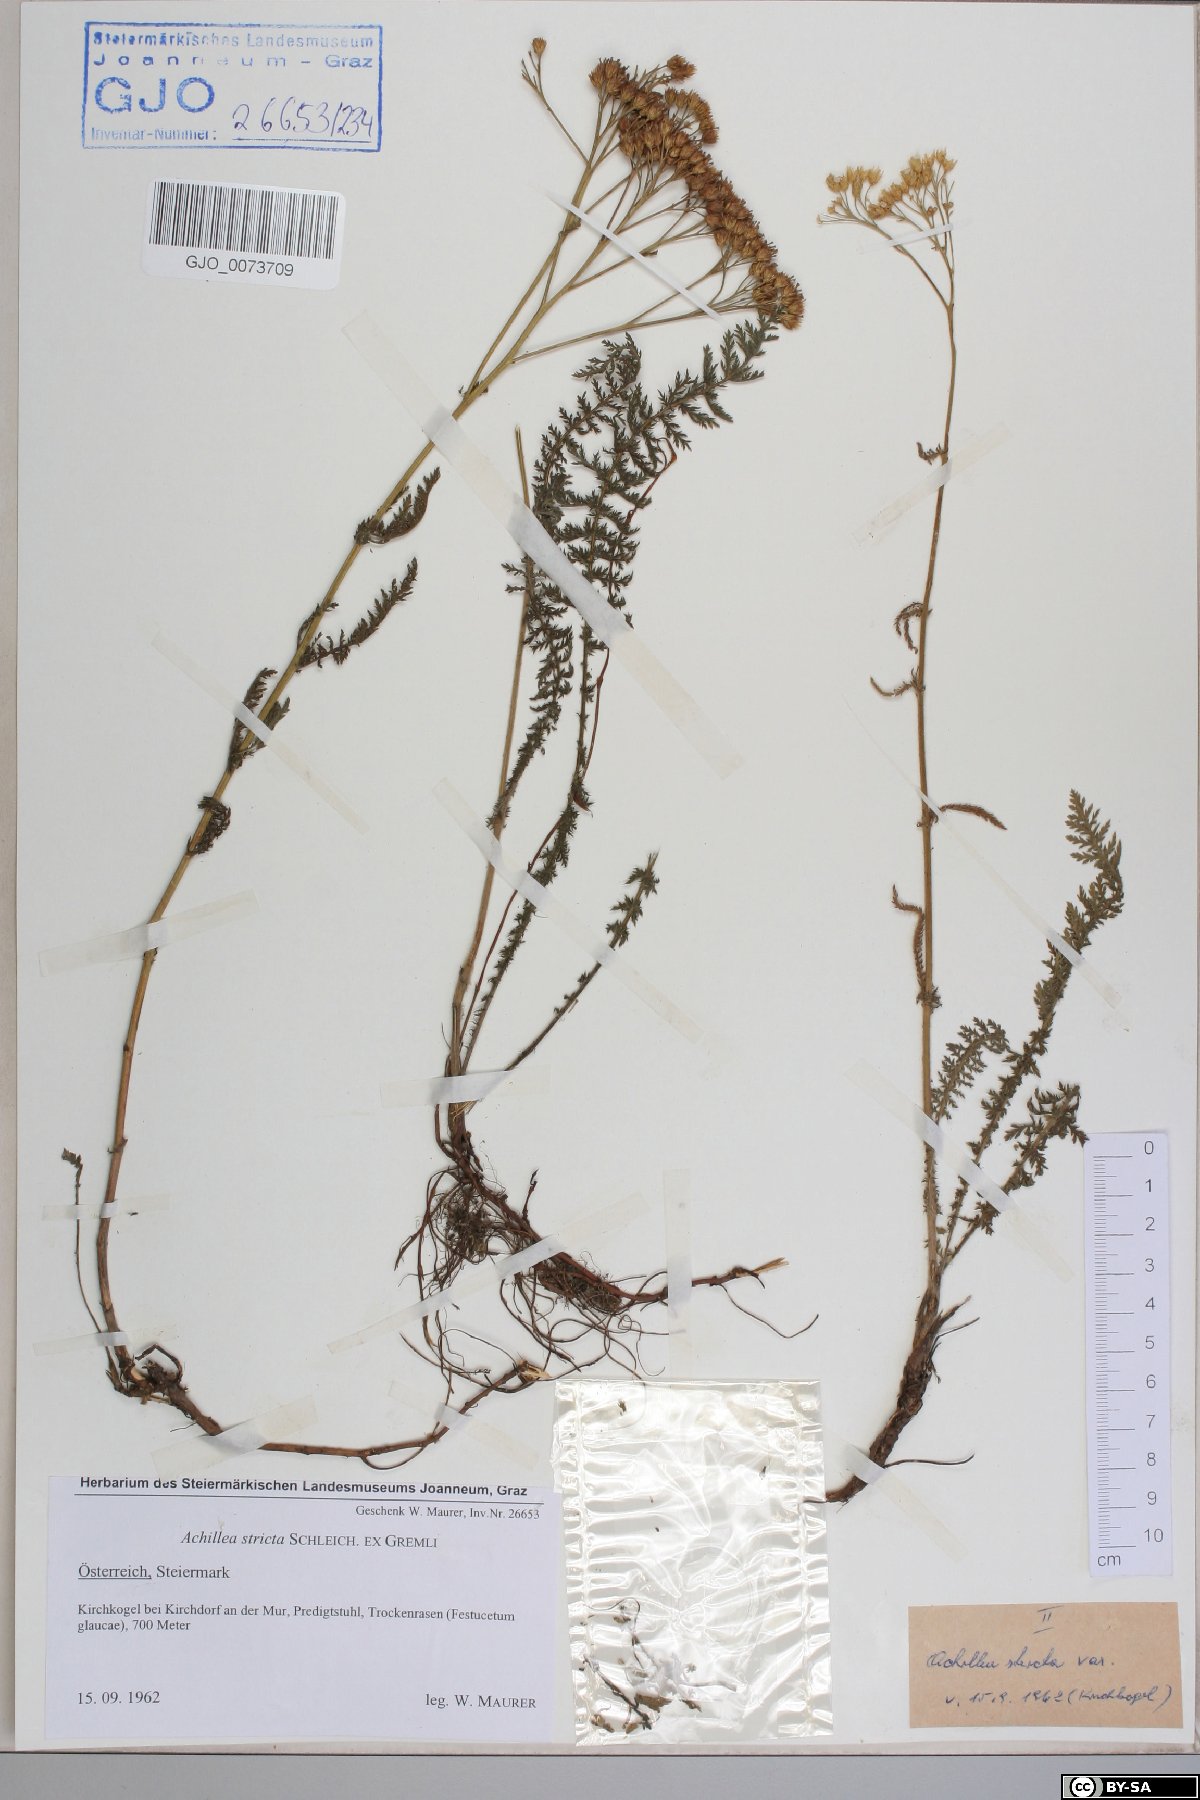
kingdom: Plantae
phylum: Tracheophyta
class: Magnoliopsida
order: Asterales
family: Asteraceae
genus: Achillea
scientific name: Achillea distans
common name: Tall yarrow
